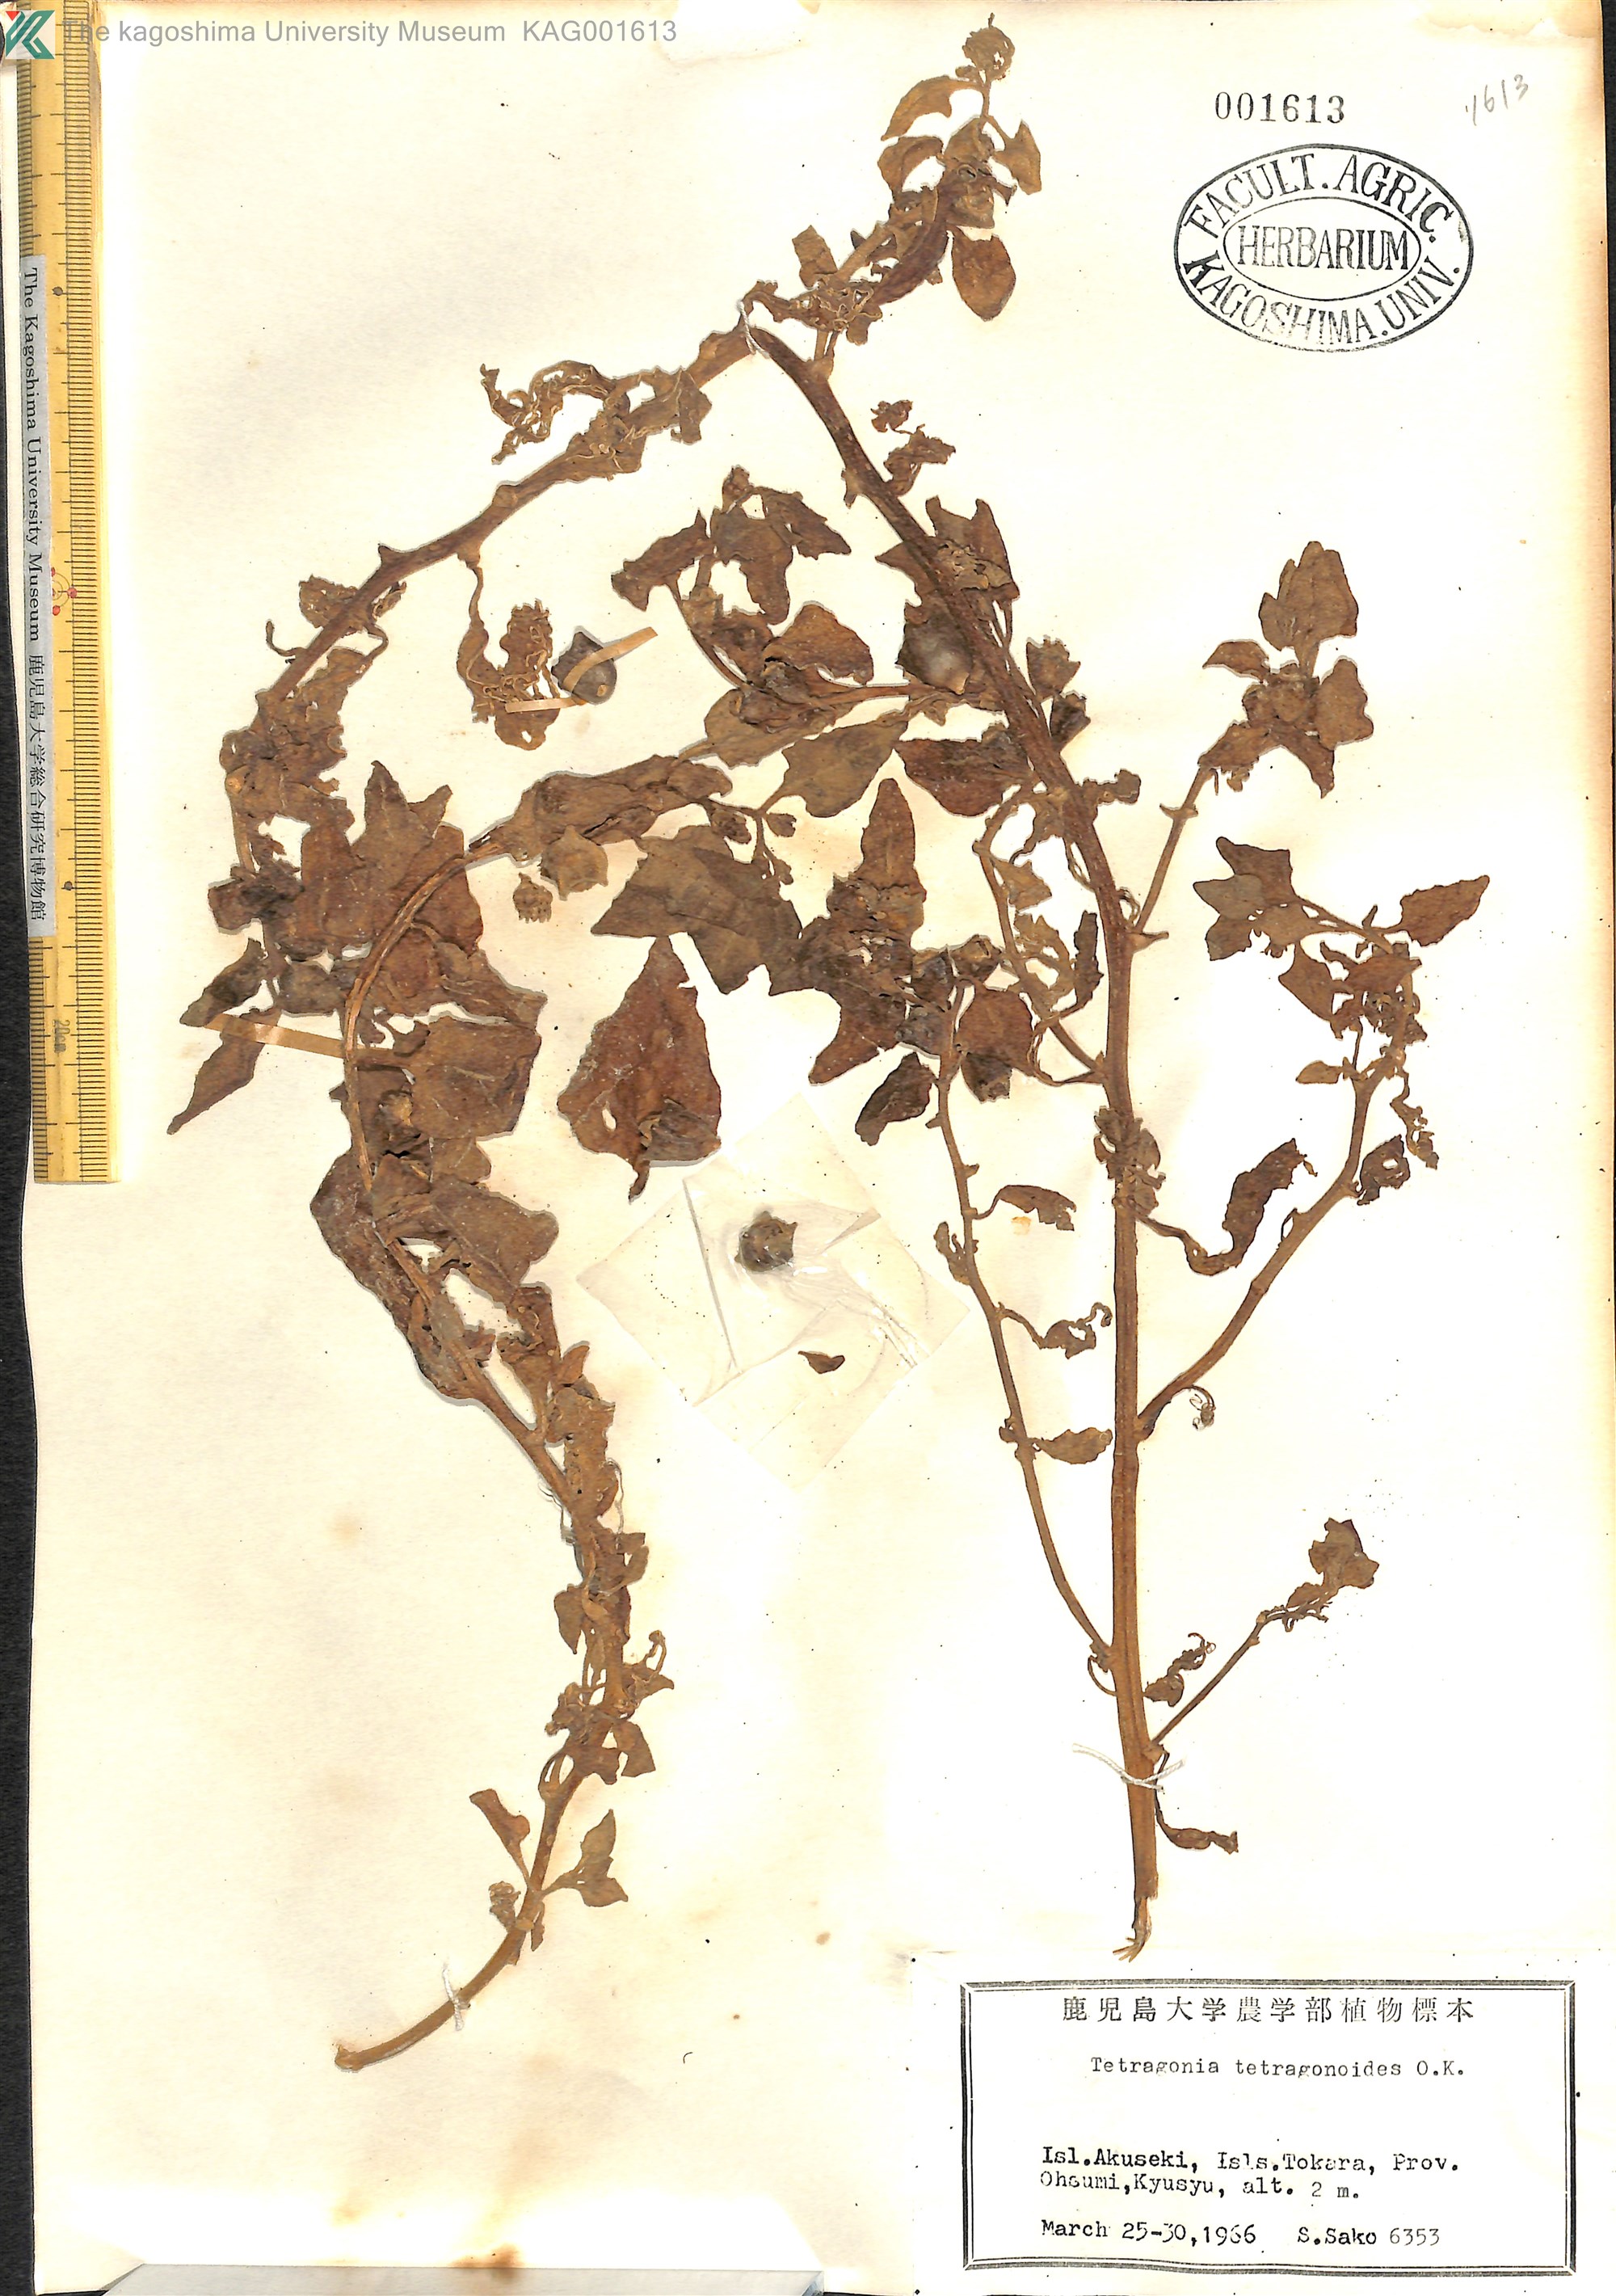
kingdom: Plantae
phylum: Tracheophyta
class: Magnoliopsida
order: Caryophyllales
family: Aizoaceae
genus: Tetragonia
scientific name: Tetragonia tetragonoides
